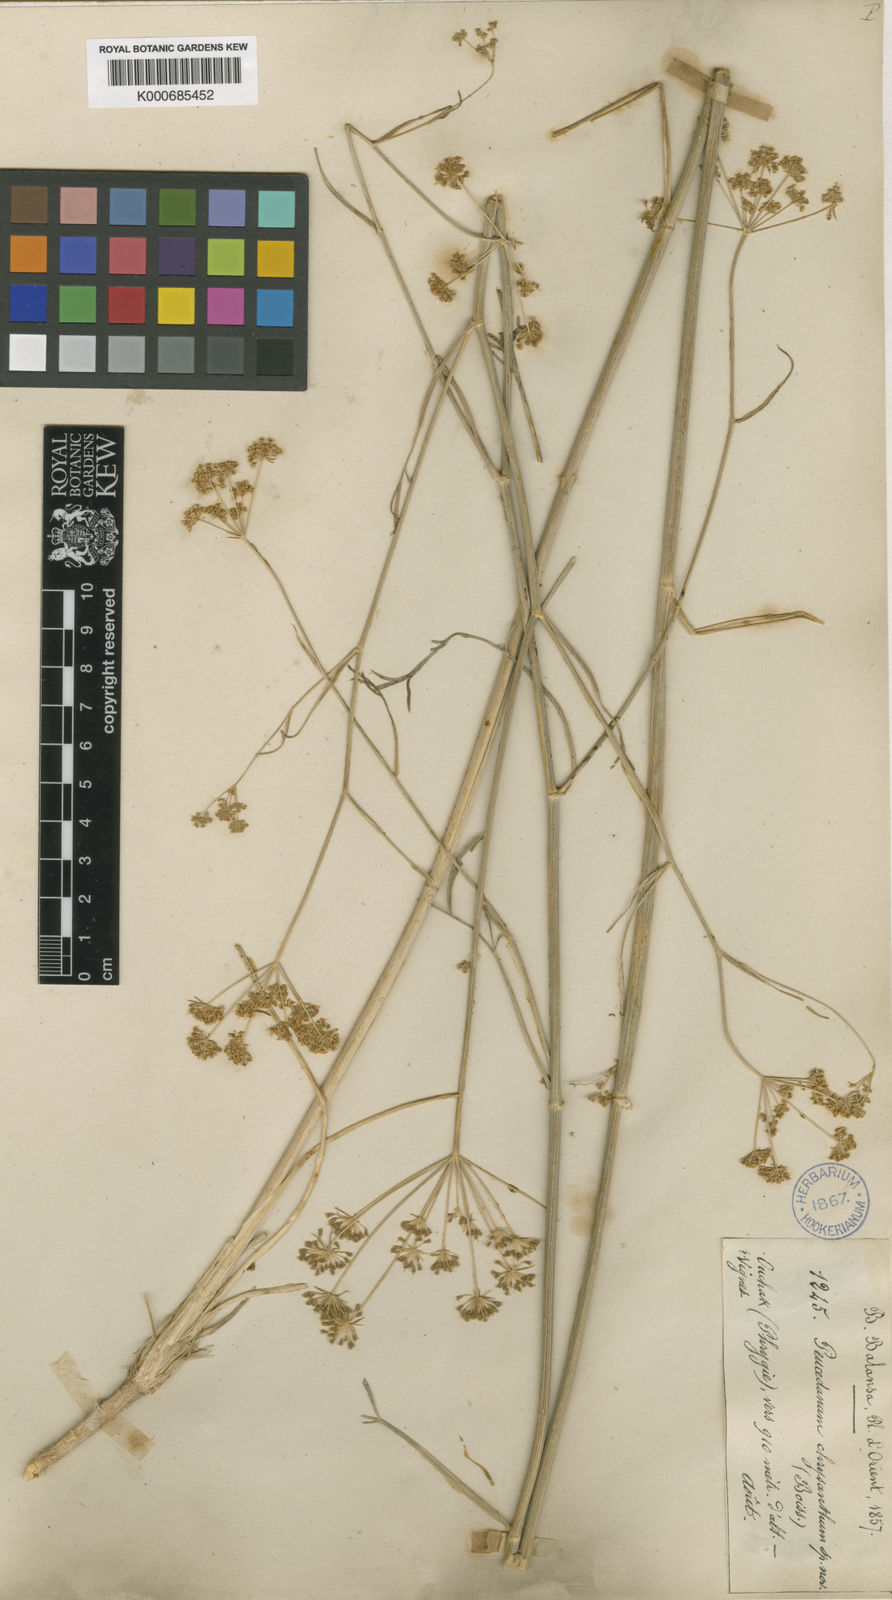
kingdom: Plantae
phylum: Tracheophyta
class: Magnoliopsida
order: Apiales
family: Apiaceae
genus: Dichoropetalum
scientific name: Dichoropetalum chryseum
